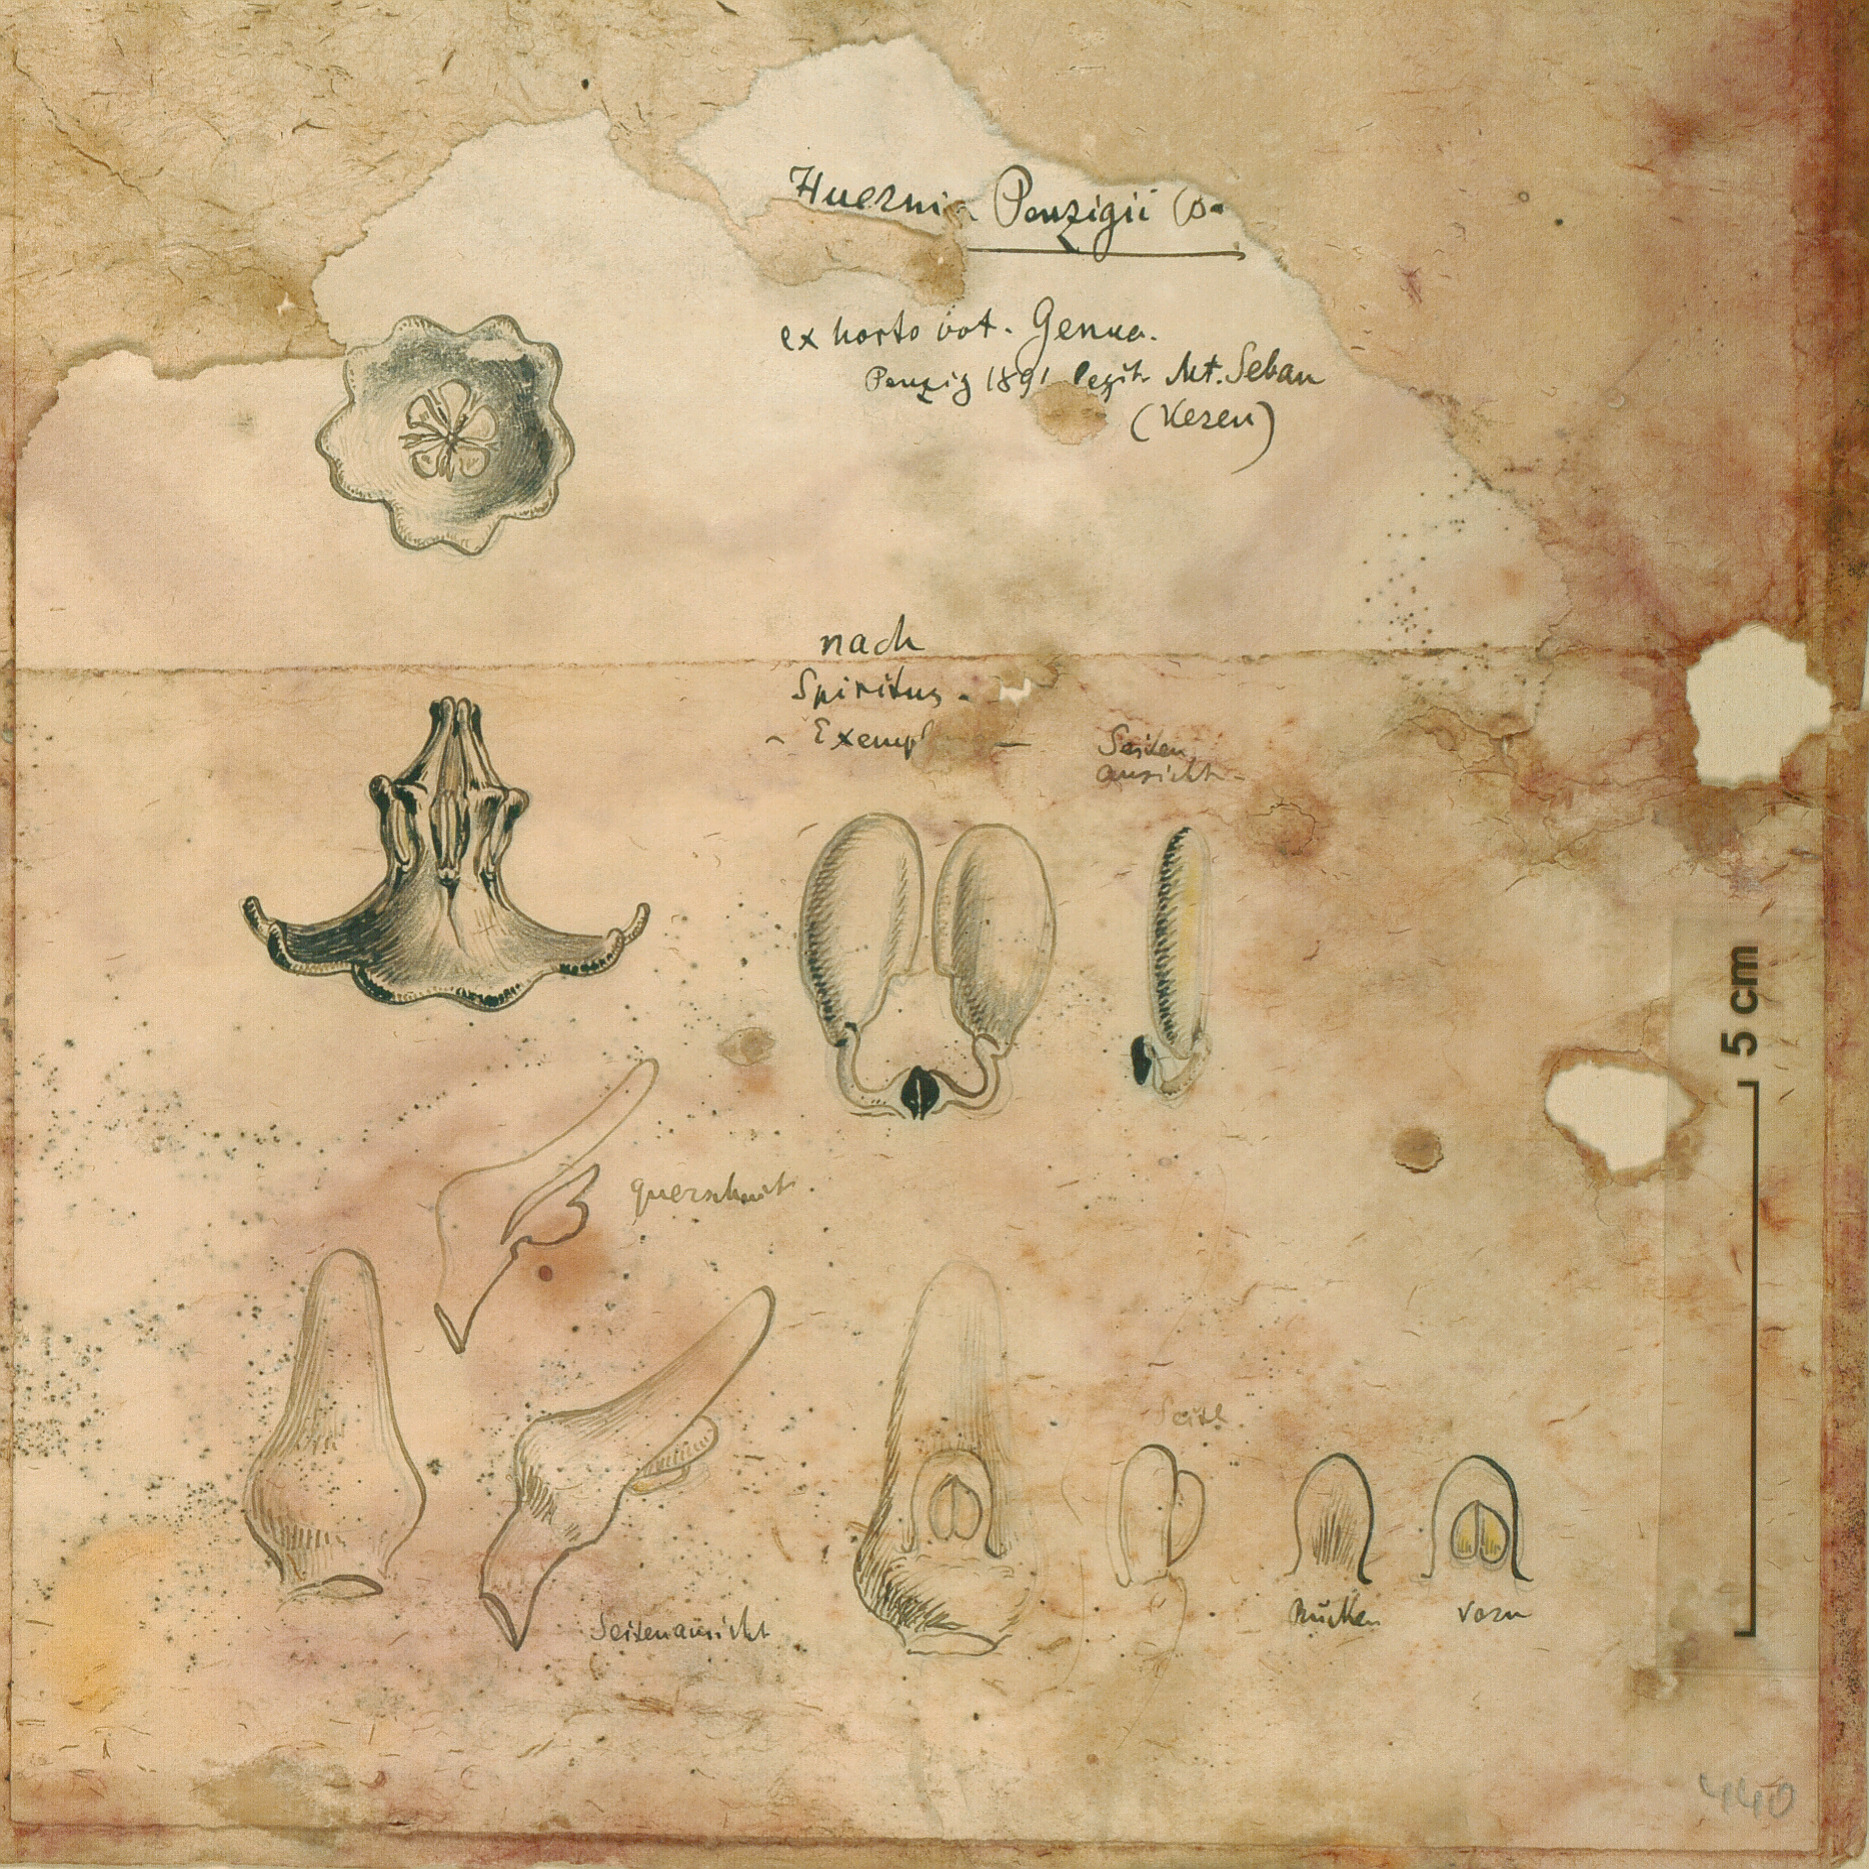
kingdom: Plantae
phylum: Tracheophyta
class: Magnoliopsida
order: Gentianales
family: Apocynaceae
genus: Ceropegia
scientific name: Ceropegia macrocarpa
